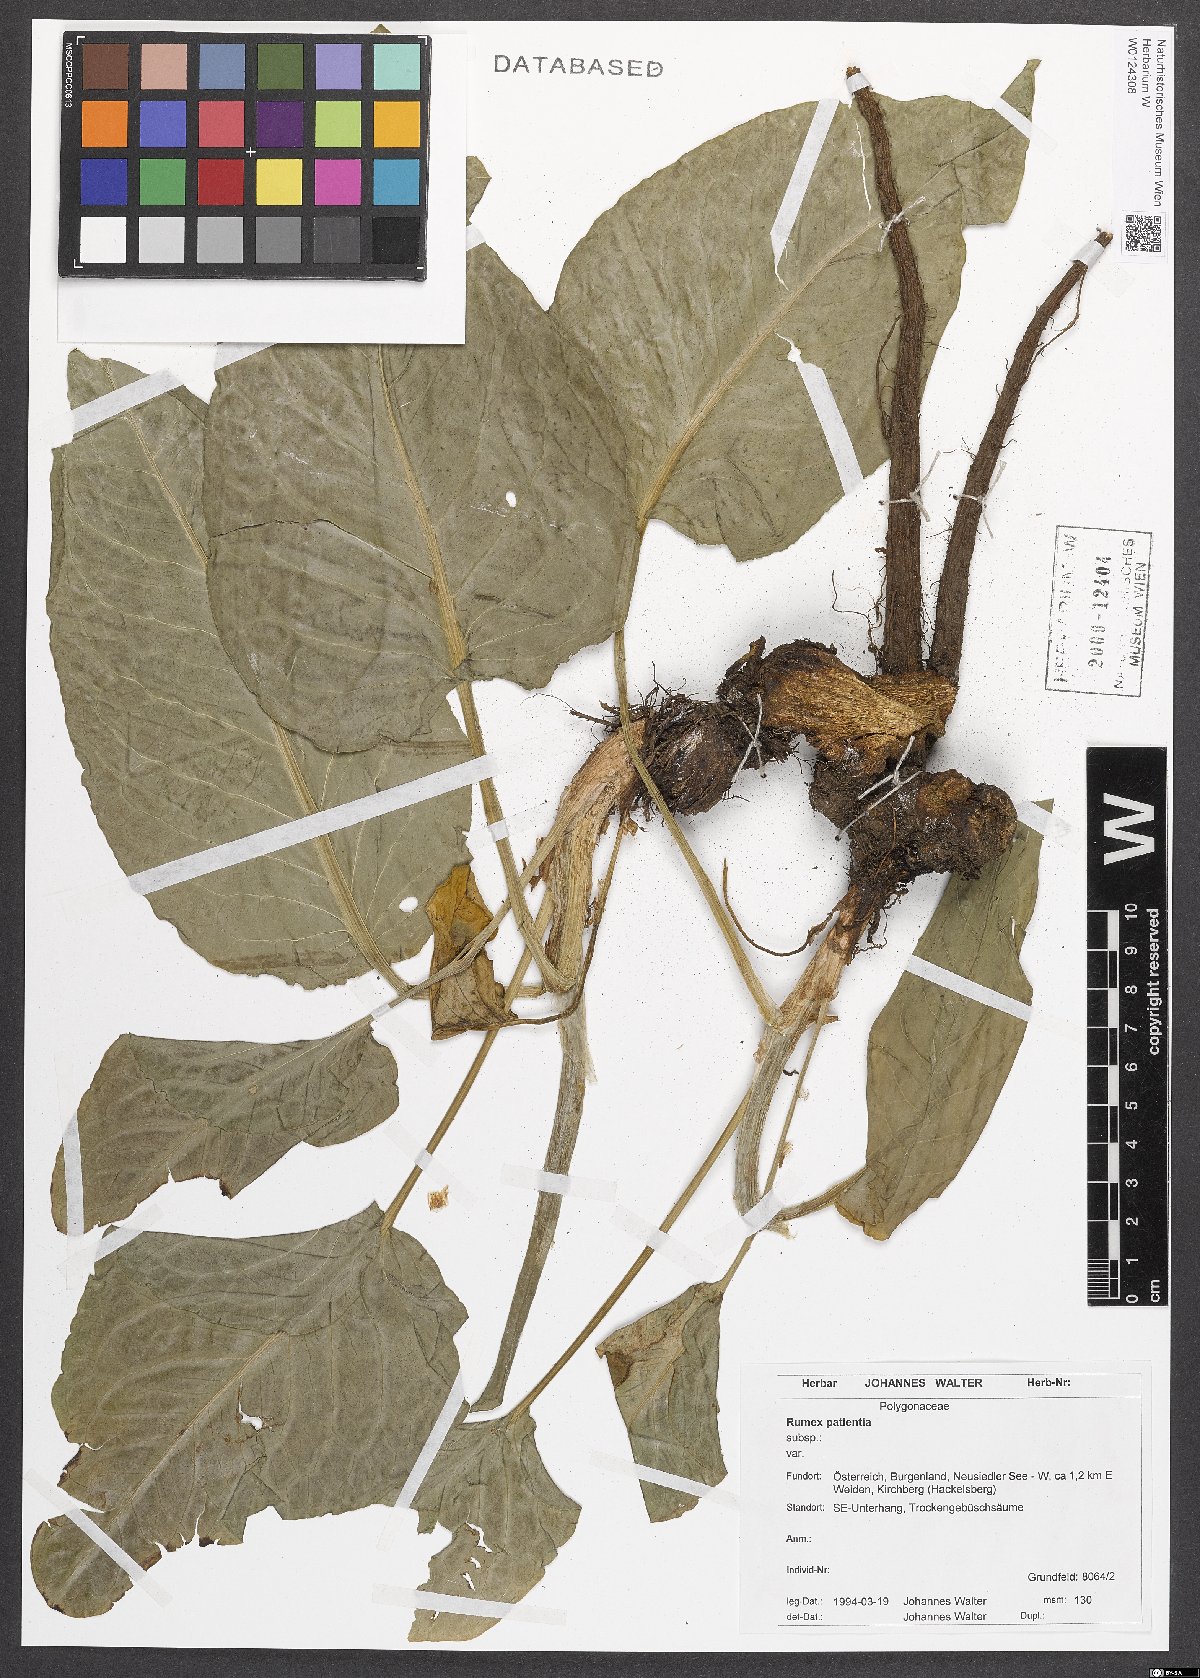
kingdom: Plantae
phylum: Tracheophyta
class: Magnoliopsida
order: Caryophyllales
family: Polygonaceae
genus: Rumex
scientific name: Rumex patientia
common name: Patience dock
